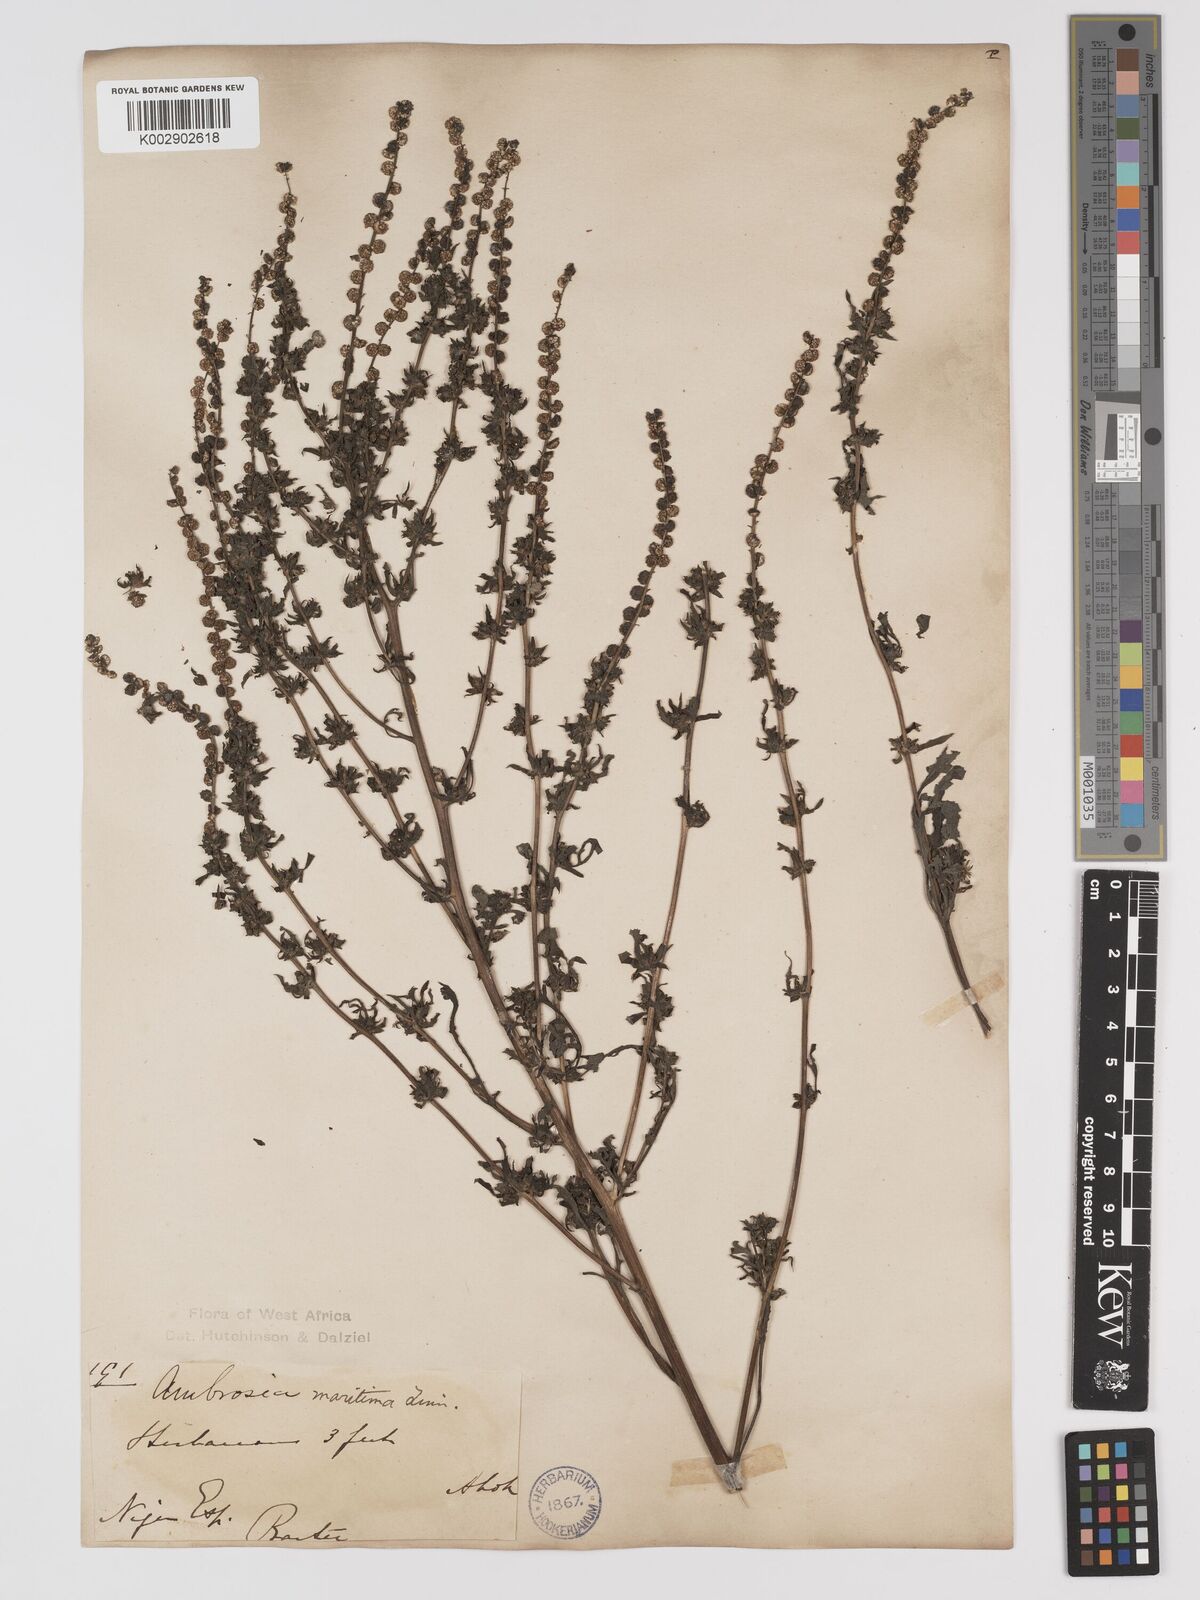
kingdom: Plantae
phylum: Tracheophyta
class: Magnoliopsida
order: Asterales
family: Asteraceae
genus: Ambrosia
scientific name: Ambrosia maritima
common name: Sea ambrosia
